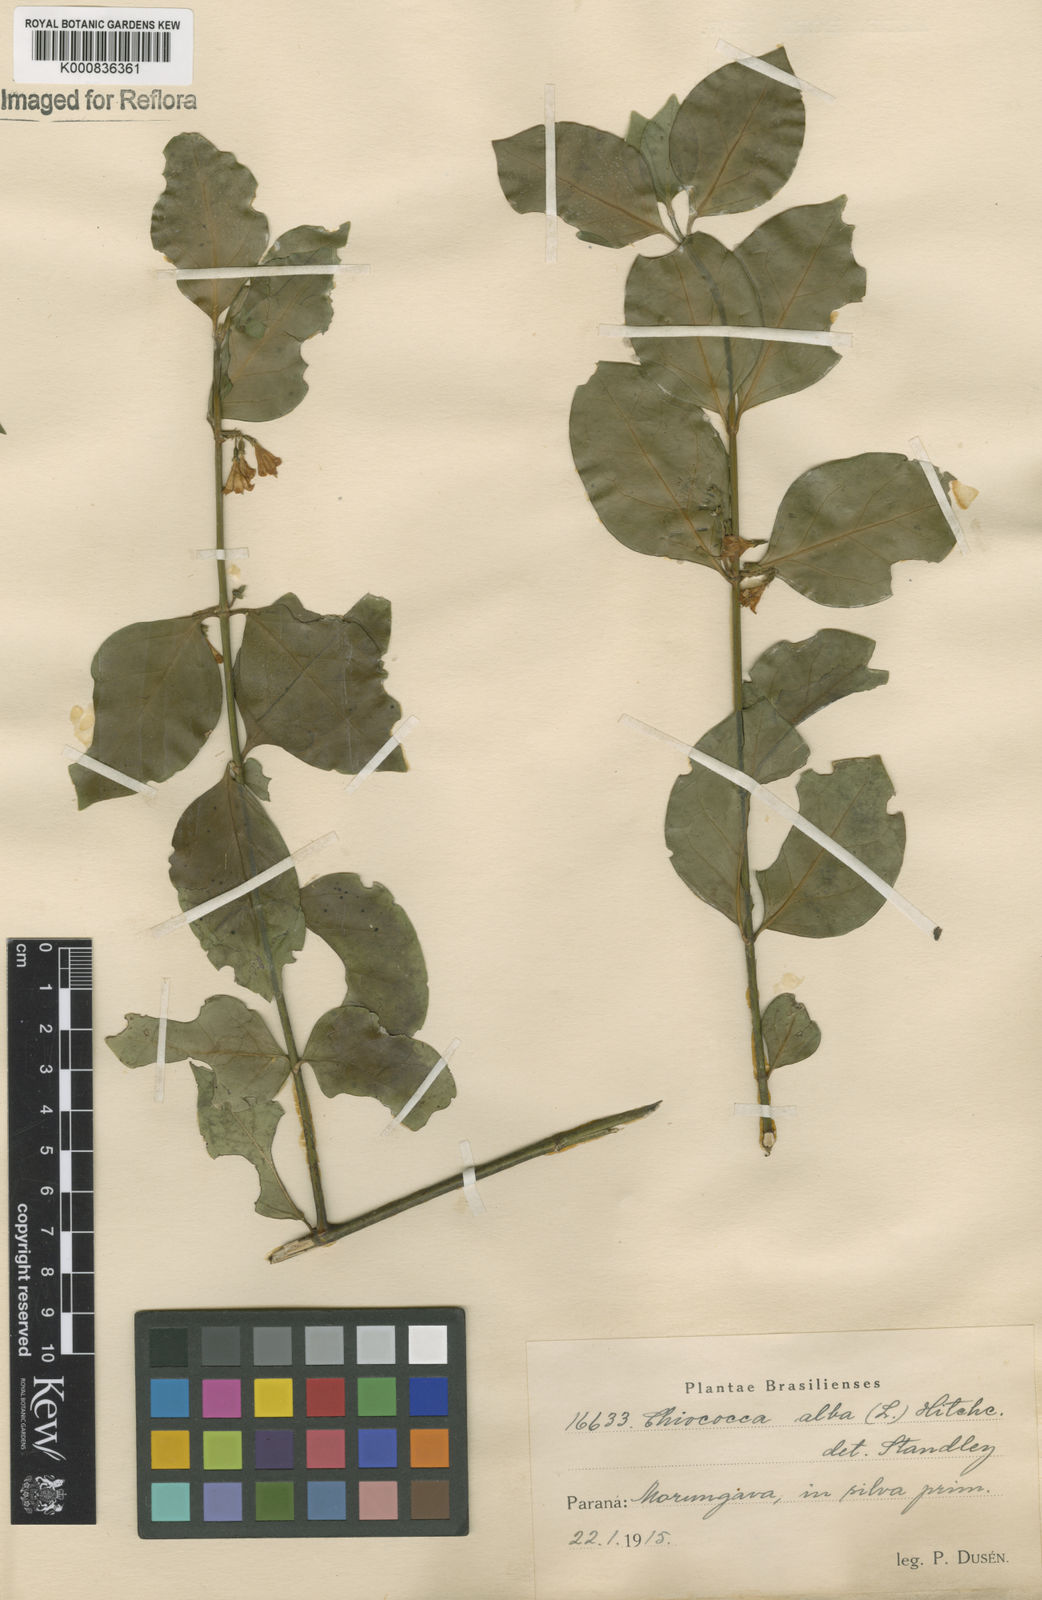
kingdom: Plantae
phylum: Tracheophyta
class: Magnoliopsida
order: Gentianales
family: Rubiaceae
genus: Chiococca
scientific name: Chiococca alba
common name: Snowberry
